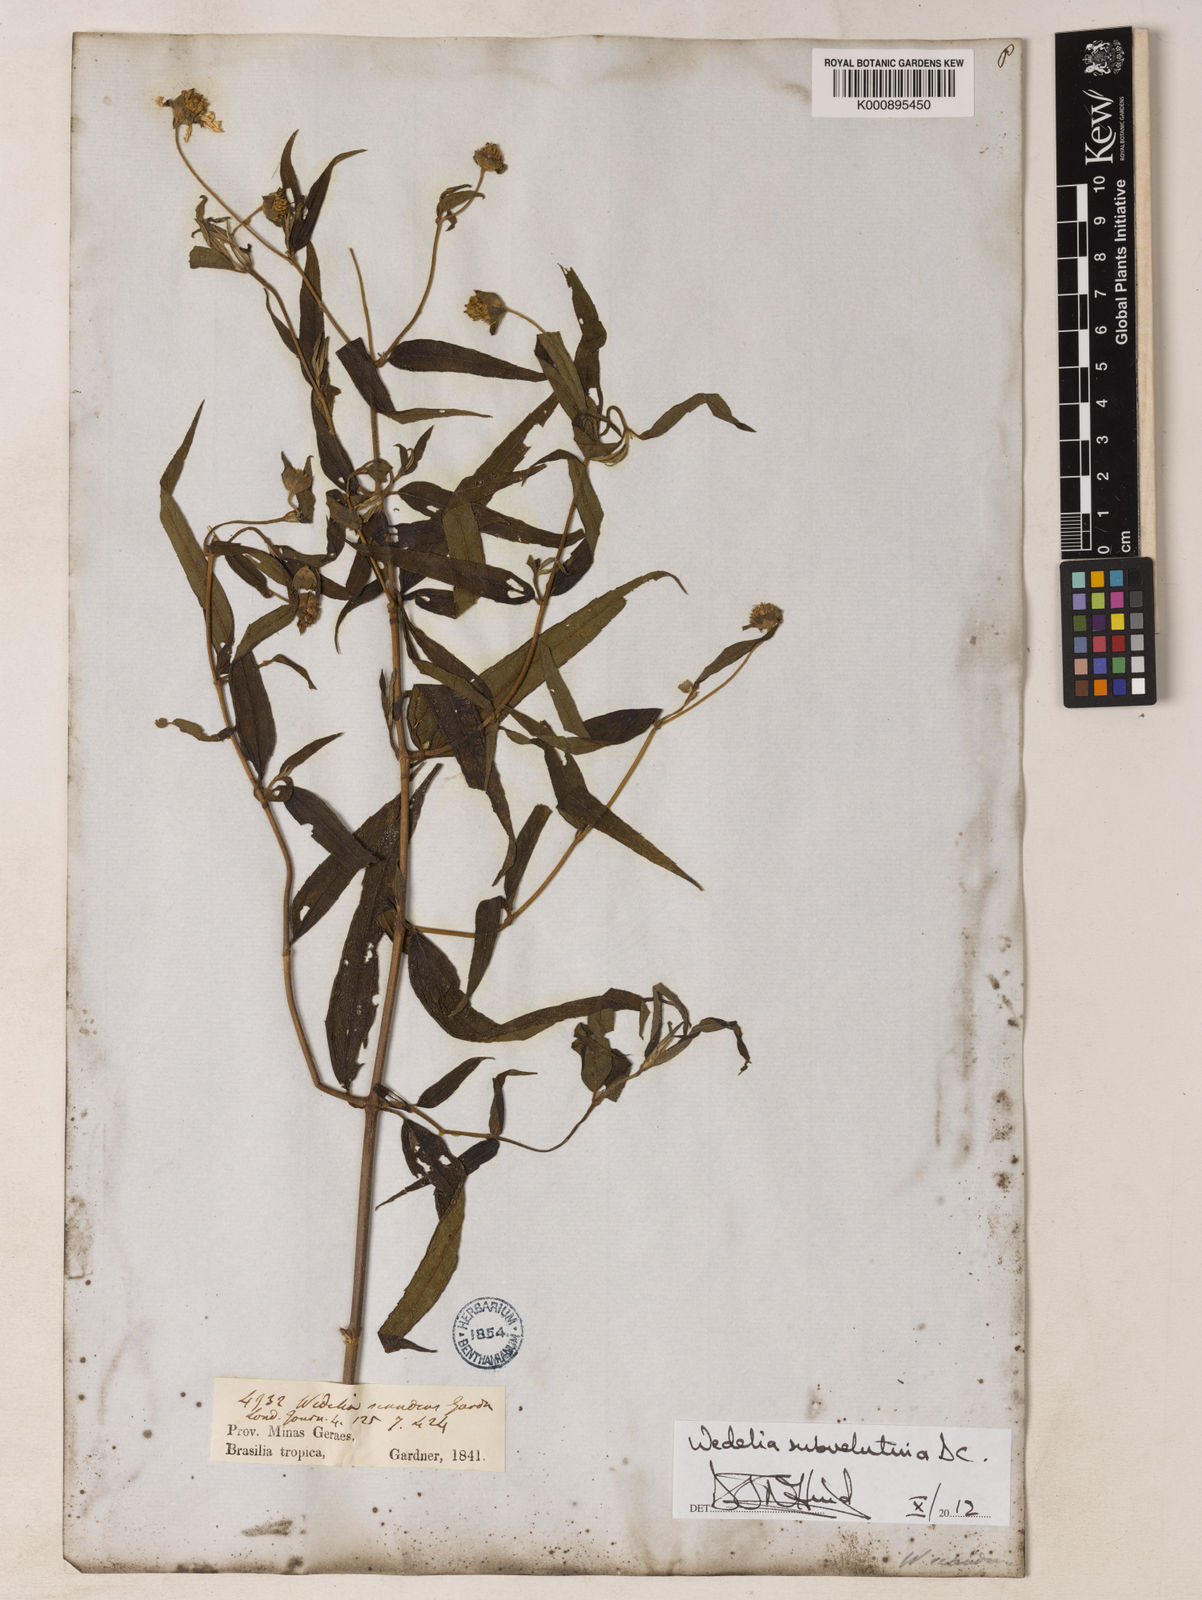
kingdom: Plantae
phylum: Tracheophyta
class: Magnoliopsida
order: Asterales
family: Asteraceae
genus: Wedelia
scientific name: Wedelia subvelutina
